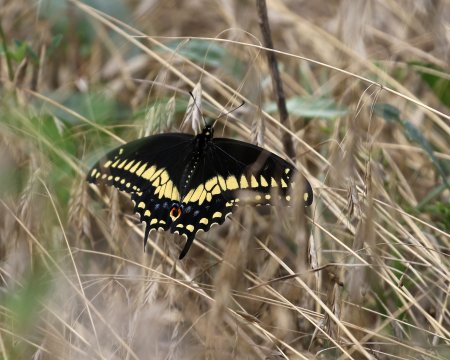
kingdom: Animalia
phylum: Arthropoda
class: Insecta
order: Lepidoptera
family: Papilionidae
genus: Papilio
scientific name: Papilio polyxenes
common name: Black Swallowtail
